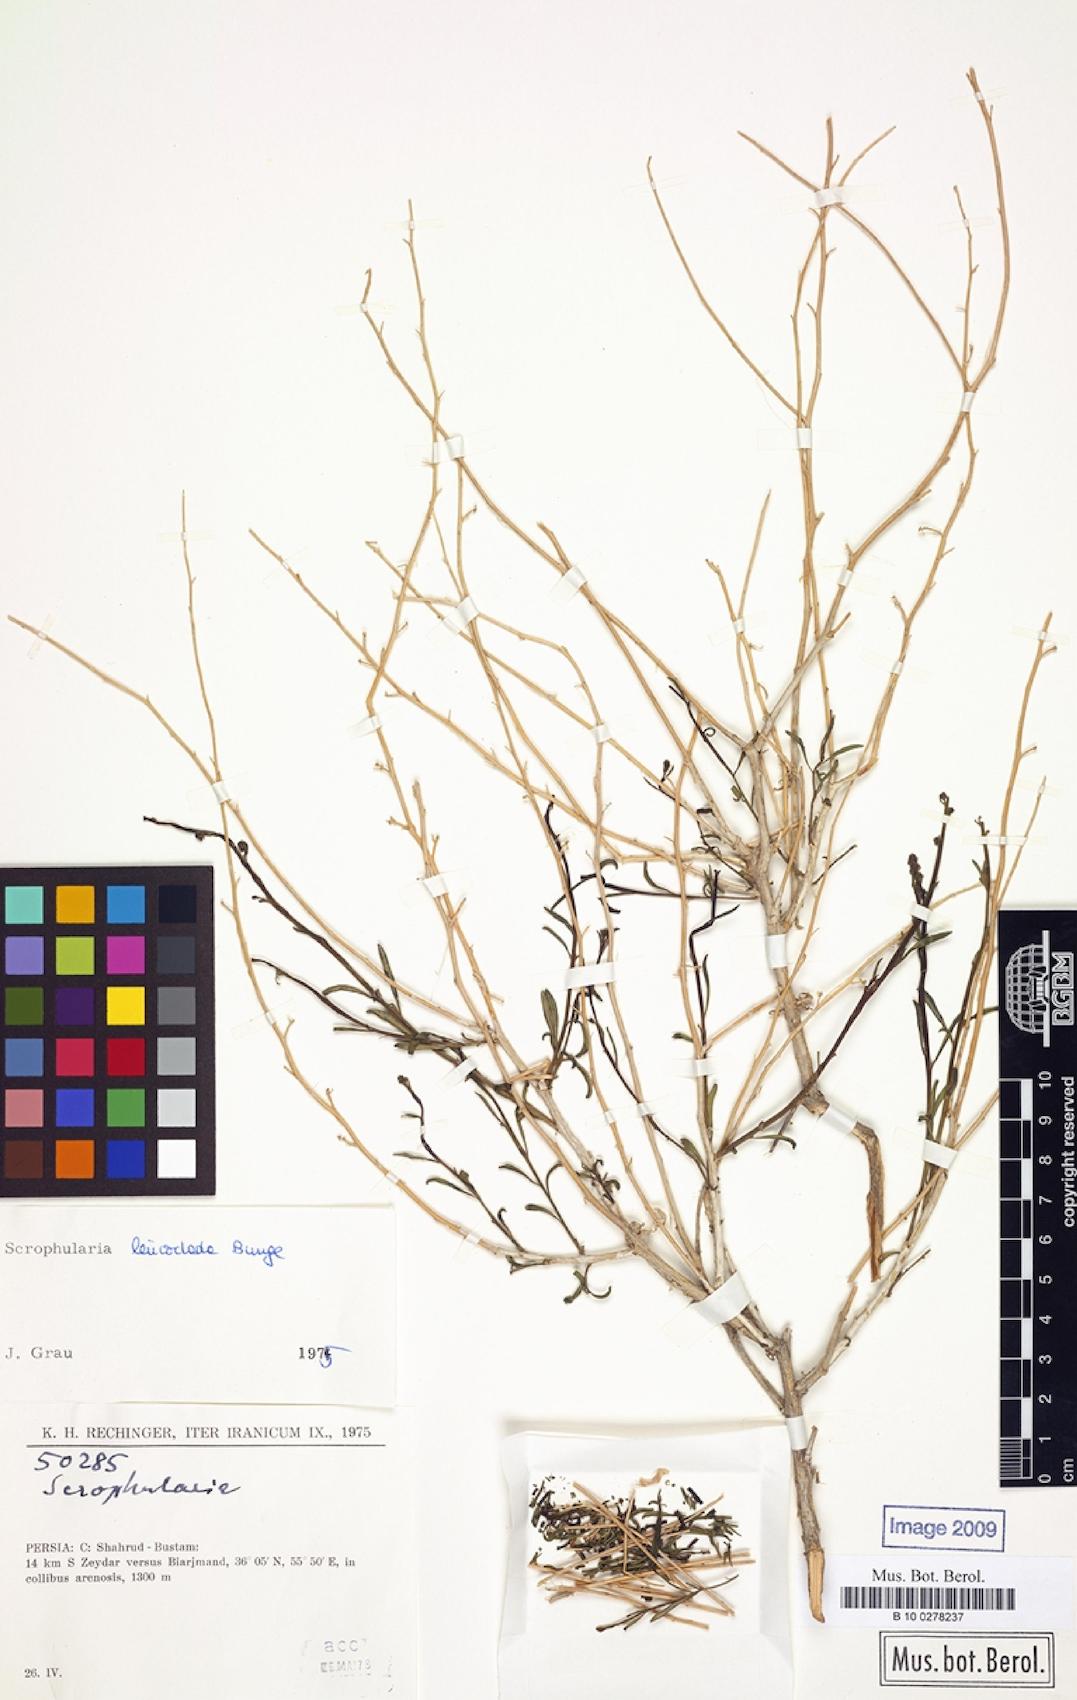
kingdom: Plantae
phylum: Tracheophyta
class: Magnoliopsida
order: Lamiales
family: Scrophulariaceae
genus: Scrophularia
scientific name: Scrophularia leucoclada
